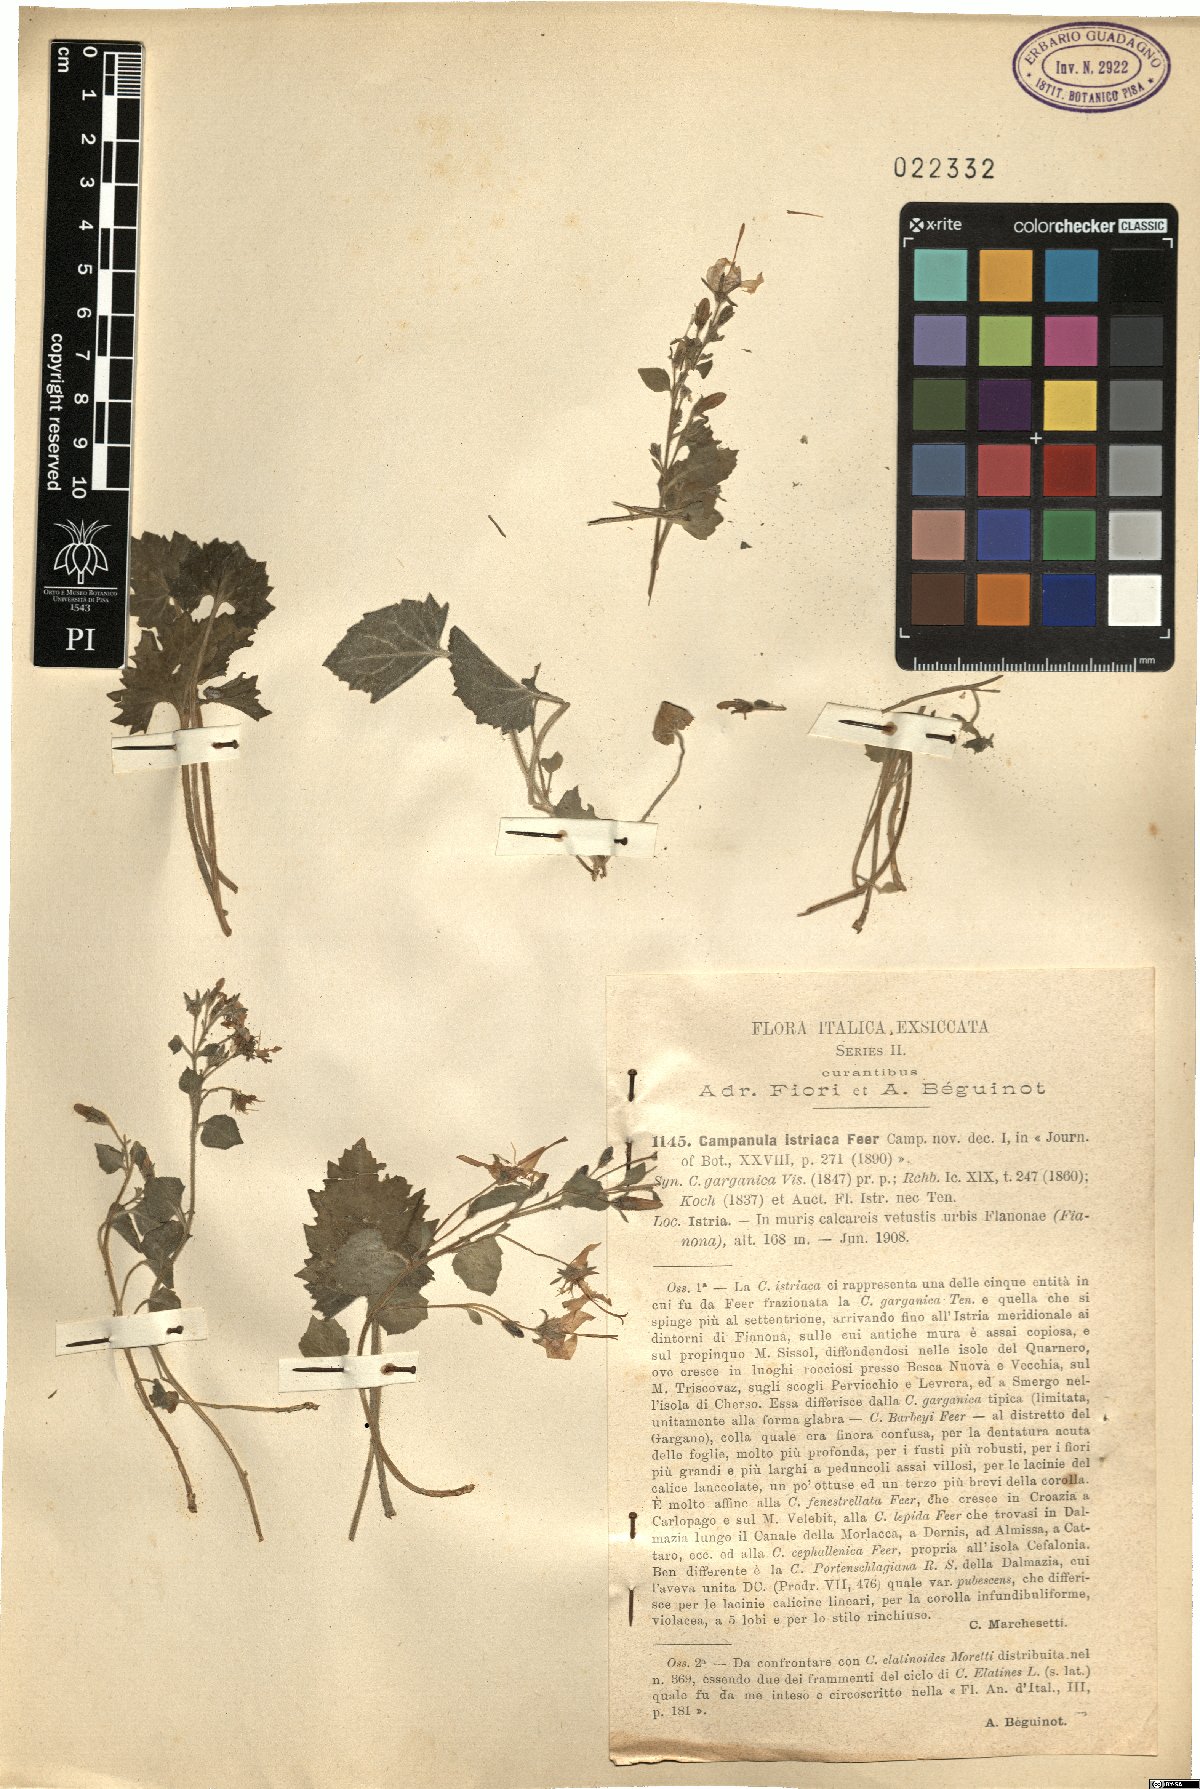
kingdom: Plantae
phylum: Tracheophyta
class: Magnoliopsida
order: Asterales
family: Campanulaceae
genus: Campanula
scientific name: Campanula fenestrellata
